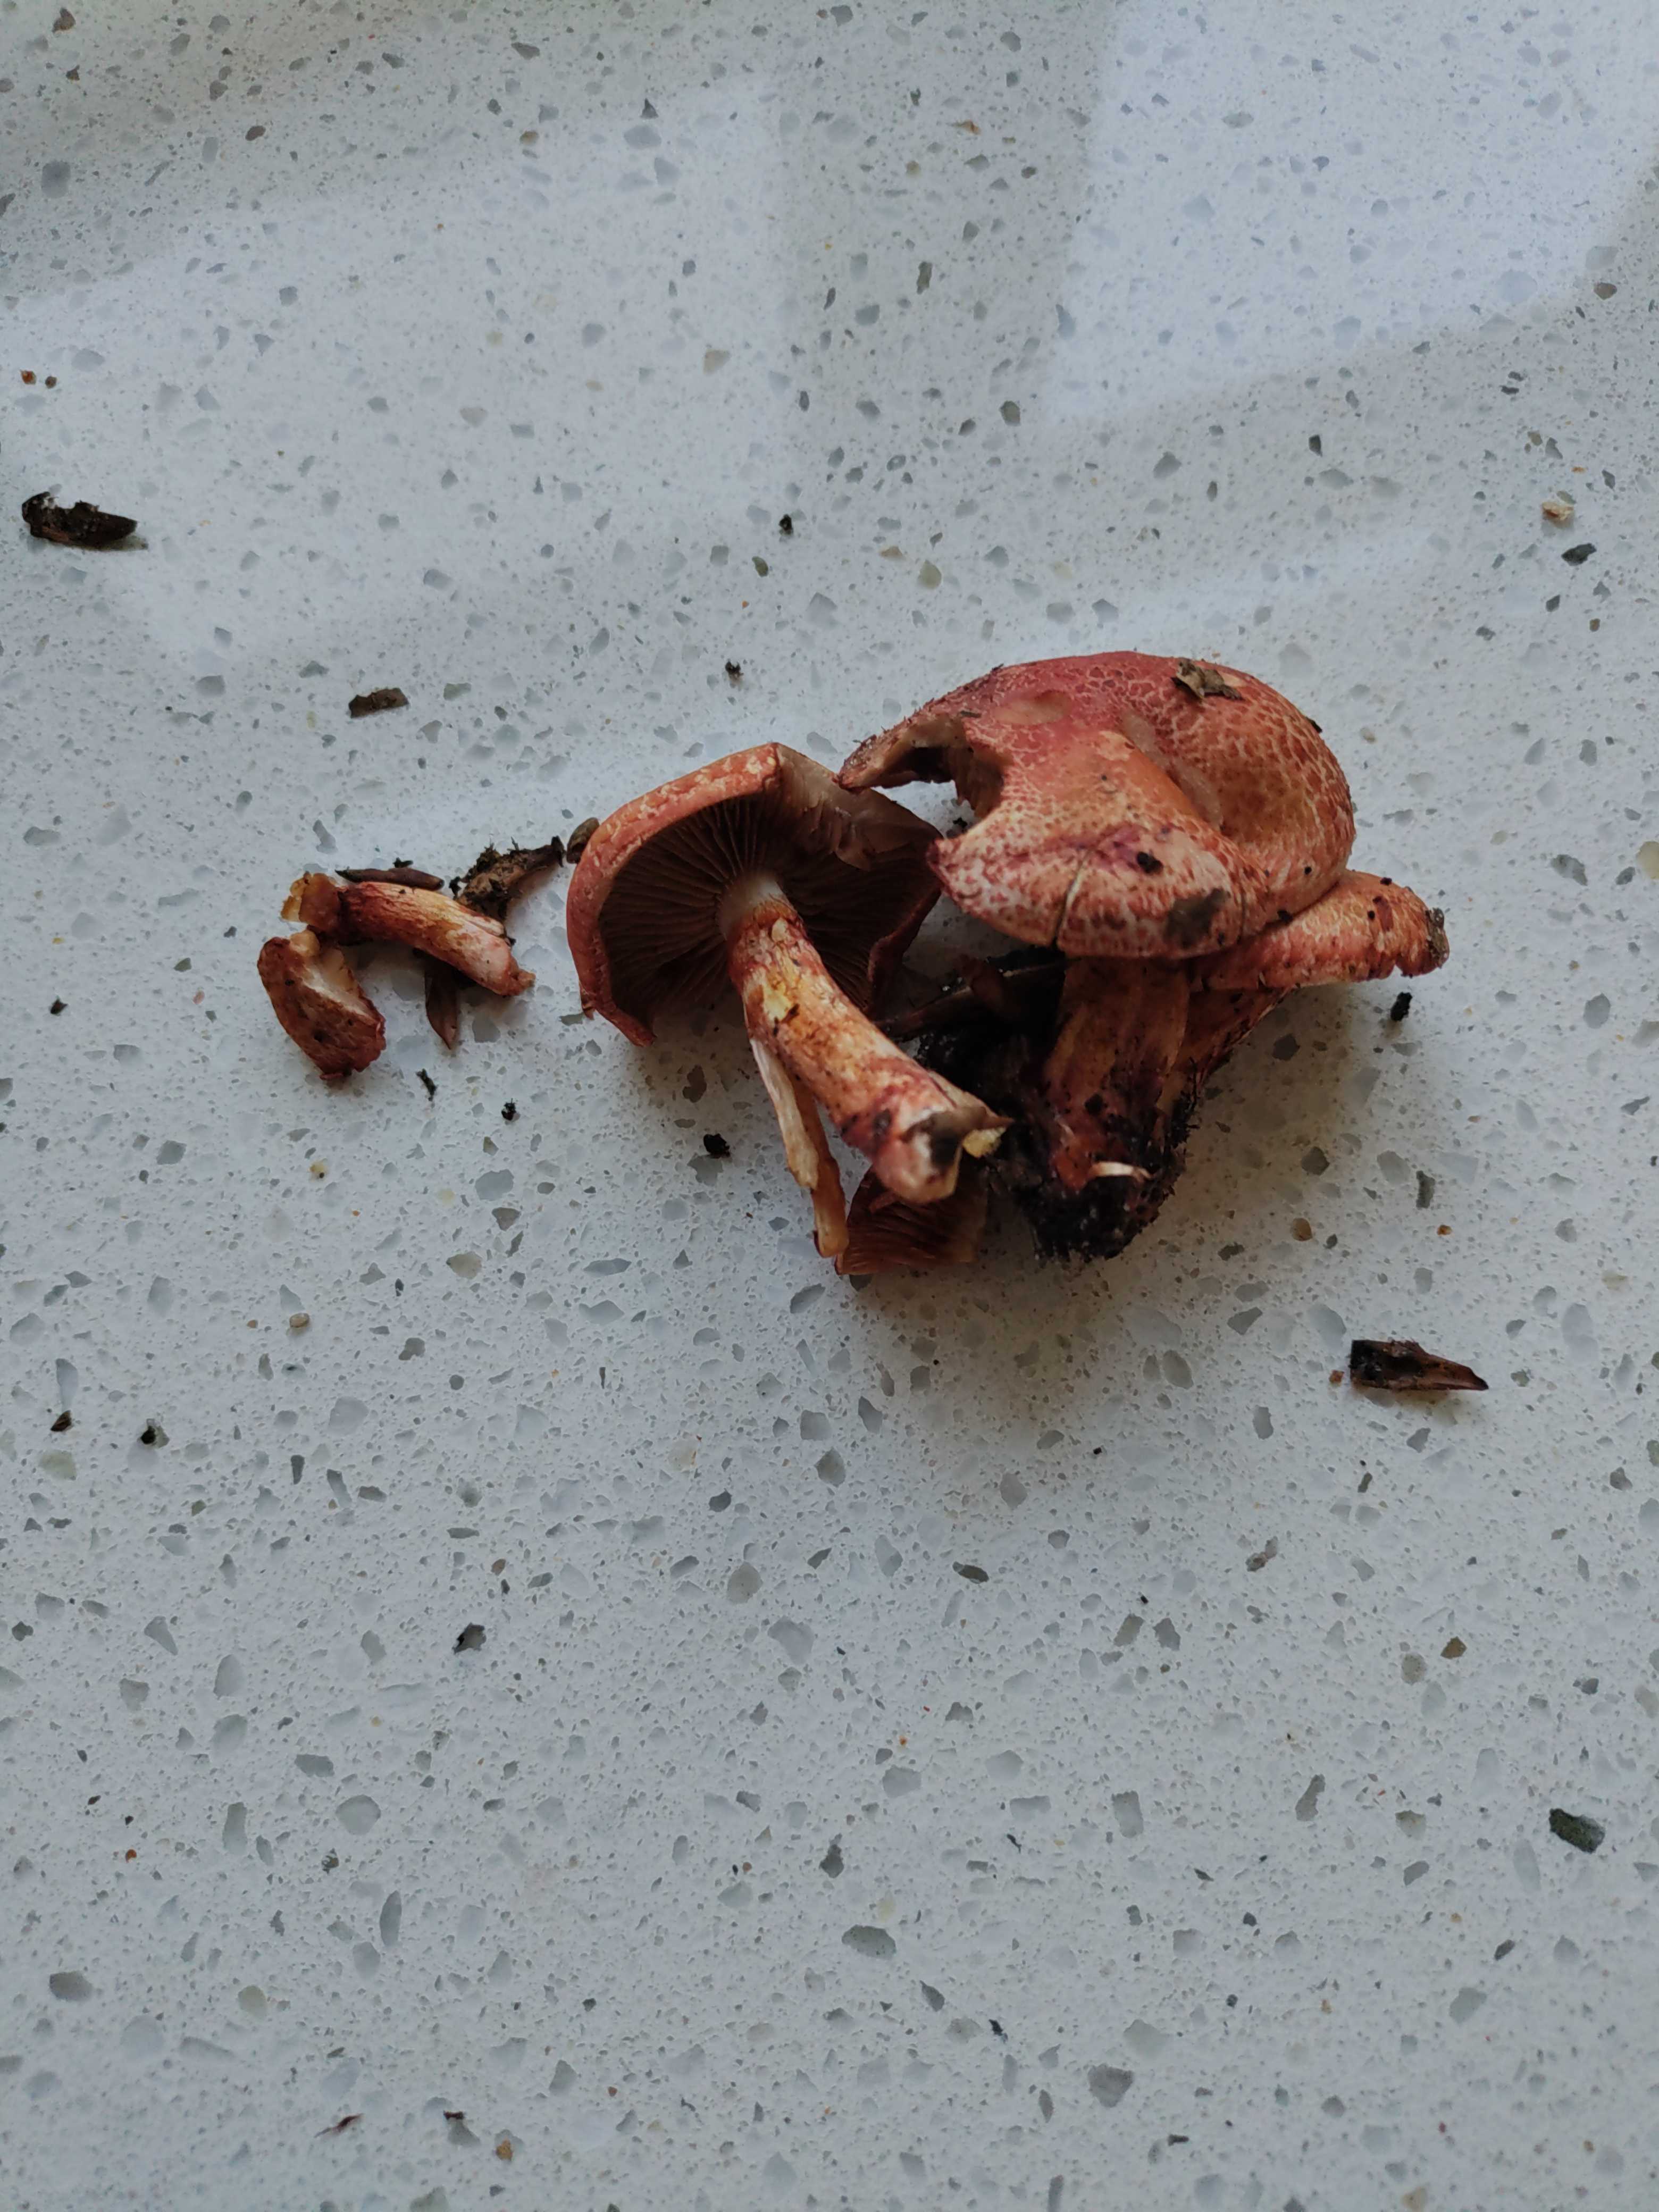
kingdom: Fungi
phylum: Basidiomycota
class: Agaricomycetes
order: Agaricales
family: Cortinariaceae
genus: Cortinarius
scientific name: Cortinarius bolaris
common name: cinnoberskællet slørhat
